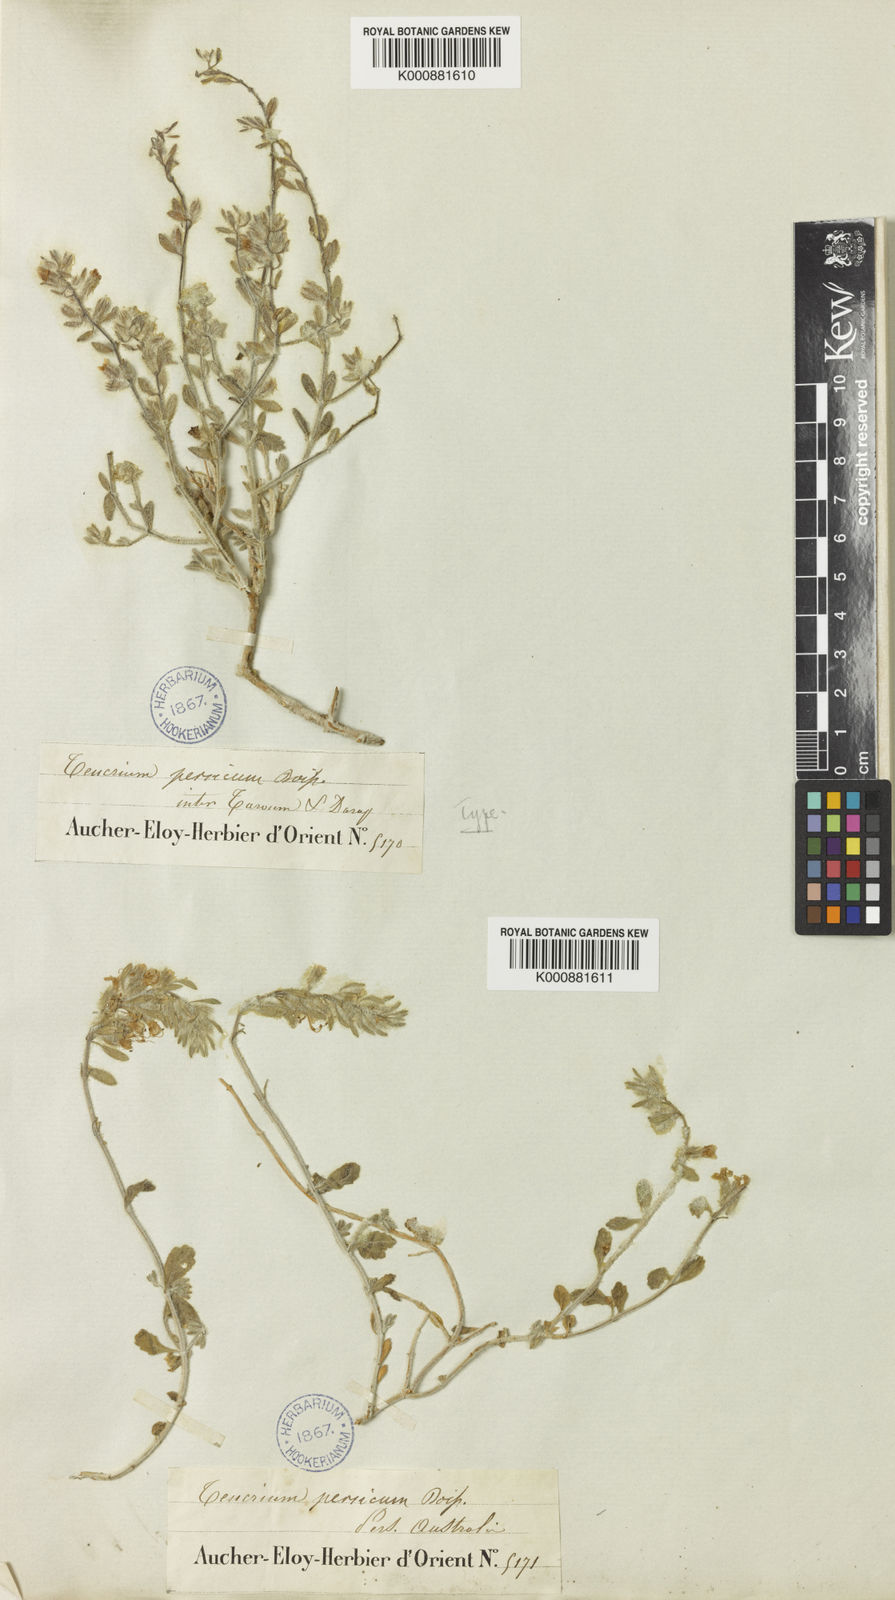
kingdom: Plantae
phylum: Tracheophyta
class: Magnoliopsida
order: Lamiales
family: Lamiaceae
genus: Teucrium
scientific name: Teucrium persicum
